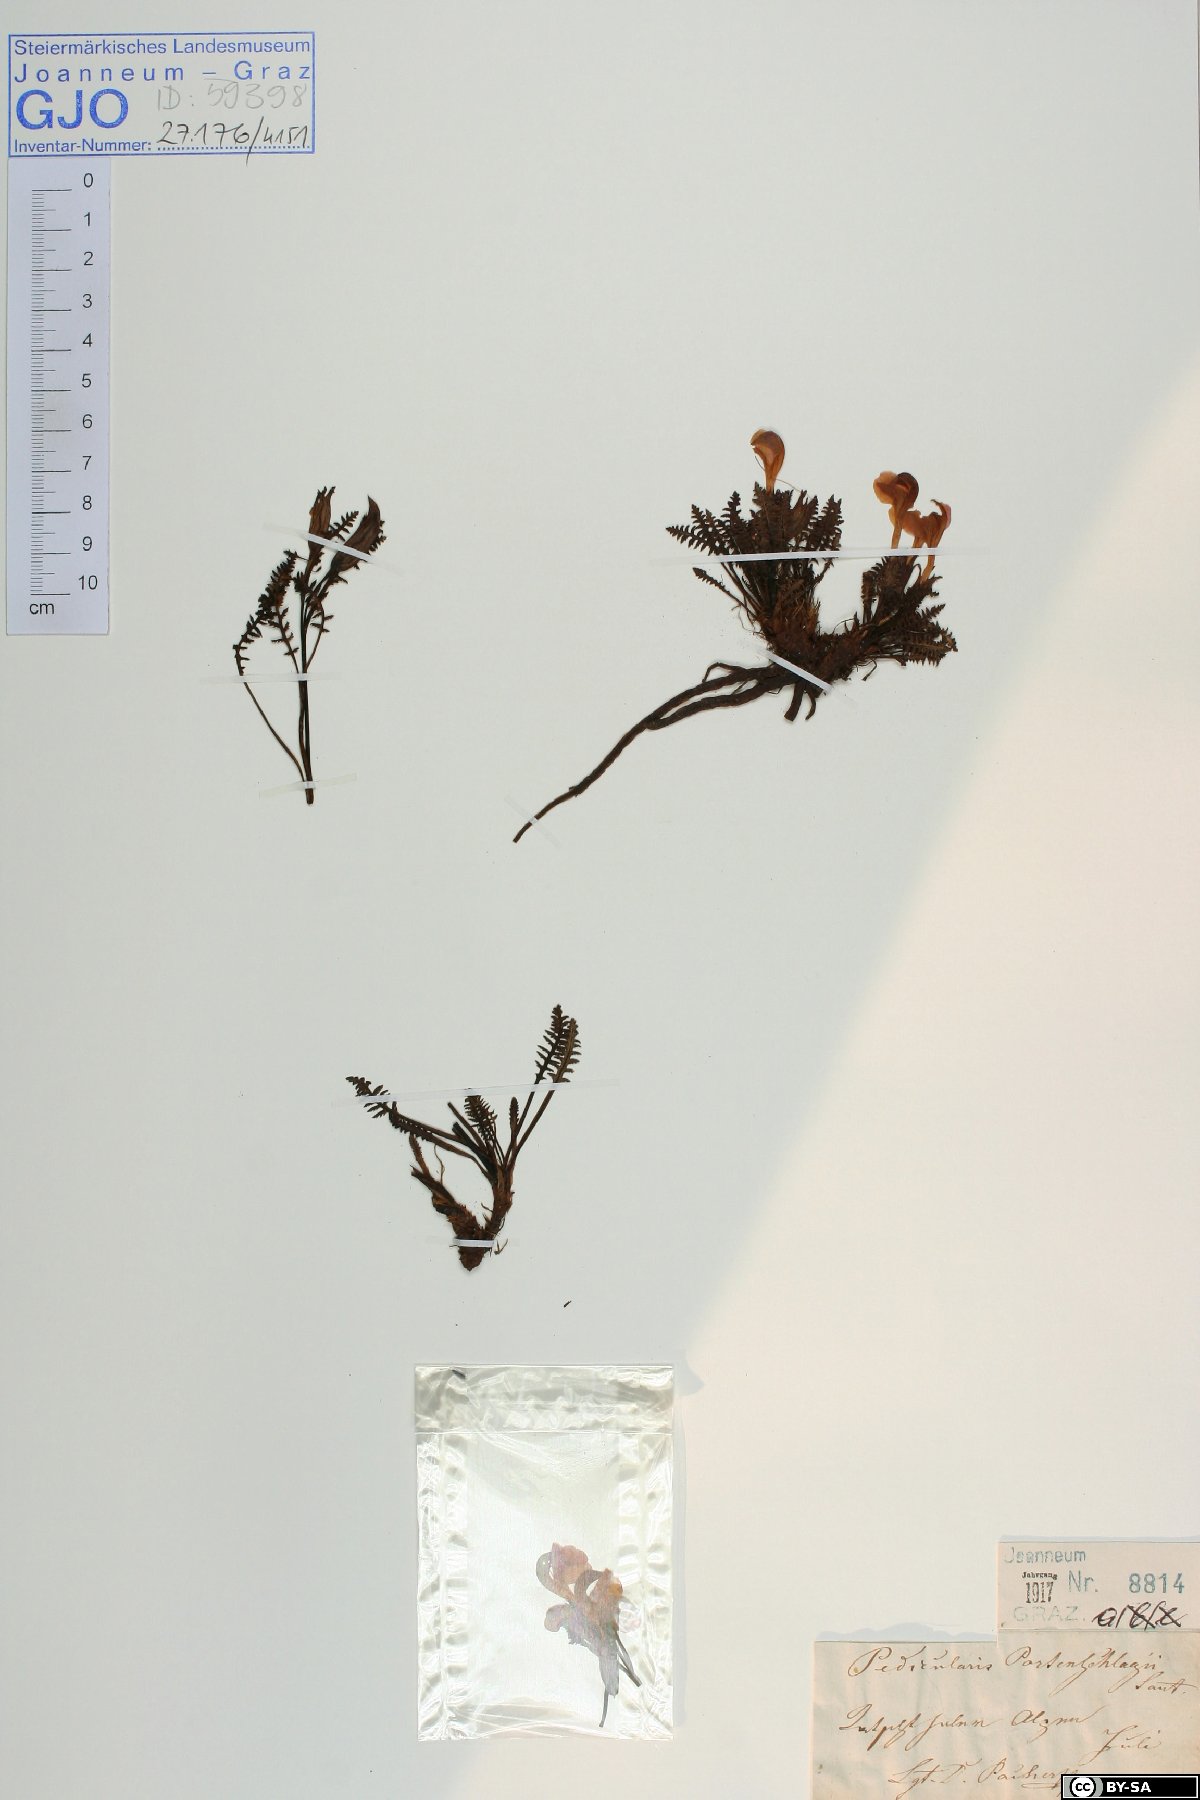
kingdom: Plantae
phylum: Tracheophyta
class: Magnoliopsida
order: Lamiales
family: Orobanchaceae
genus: Pedicularis
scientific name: Pedicularis portenschlagii
